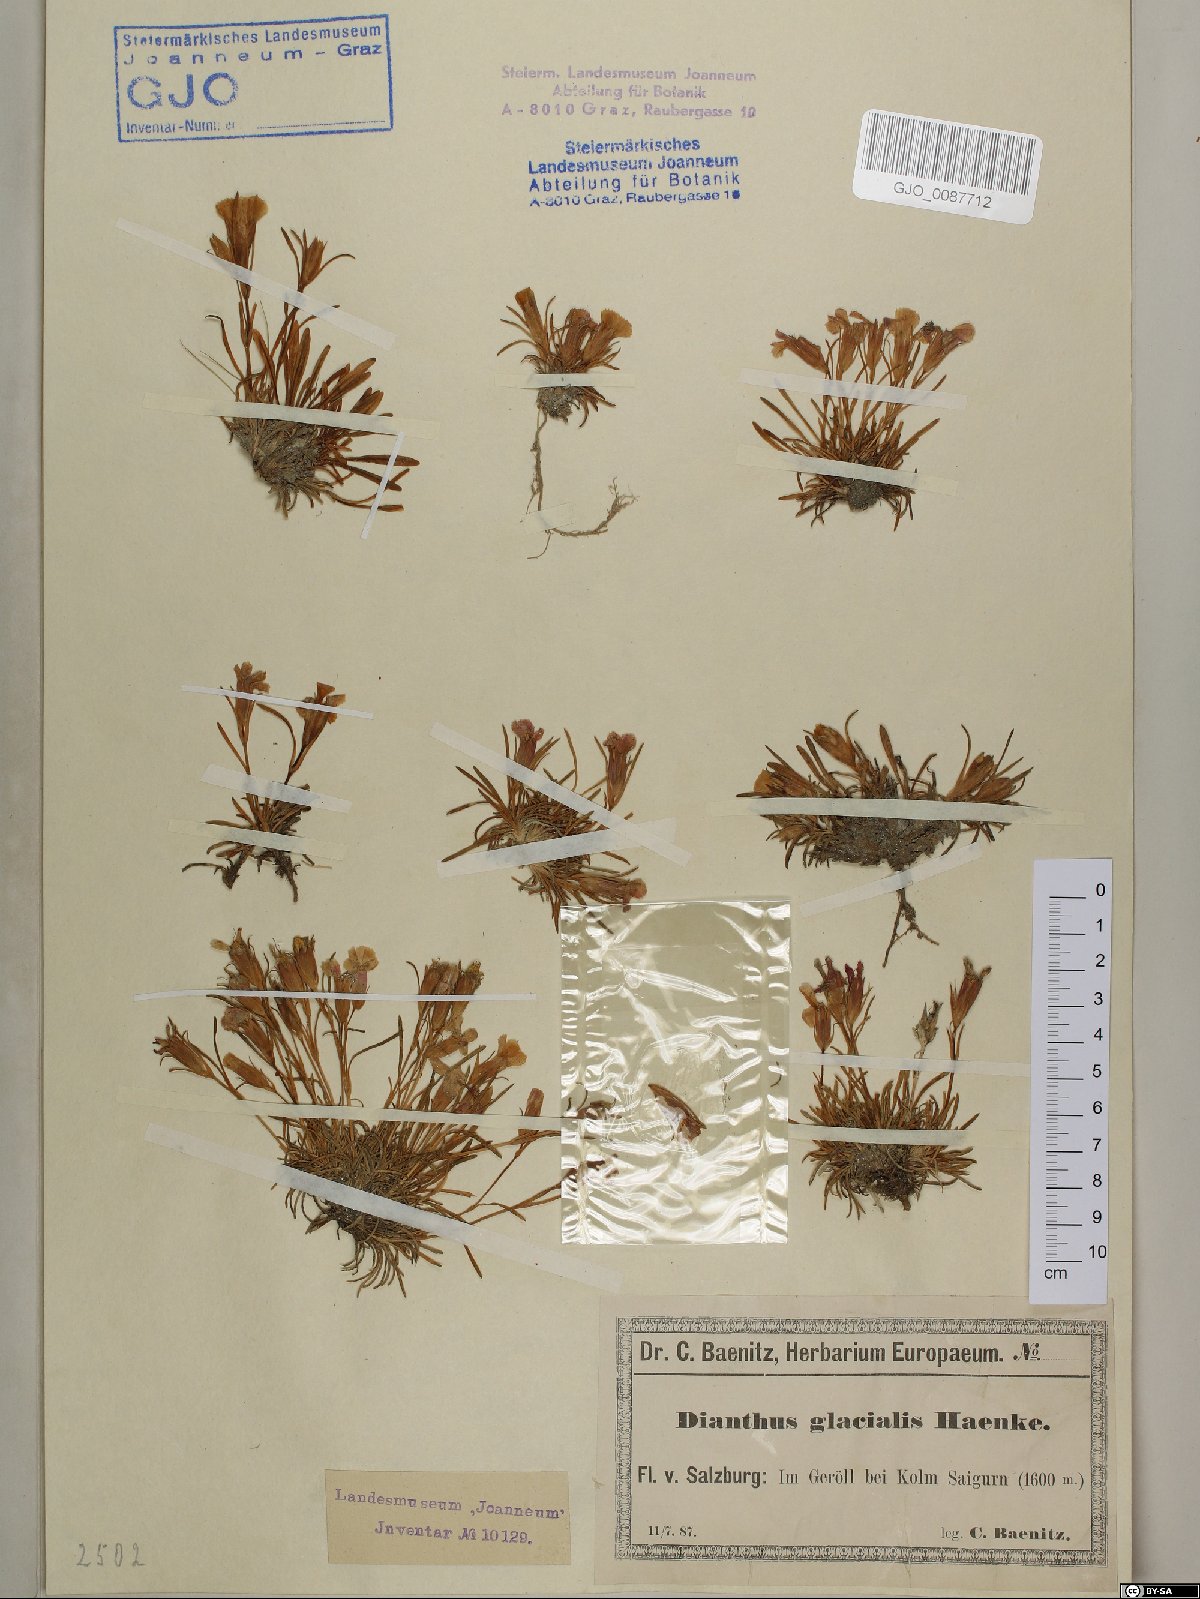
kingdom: Plantae
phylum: Tracheophyta
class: Magnoliopsida
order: Caryophyllales
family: Caryophyllaceae
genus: Dianthus
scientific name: Dianthus glacialis
